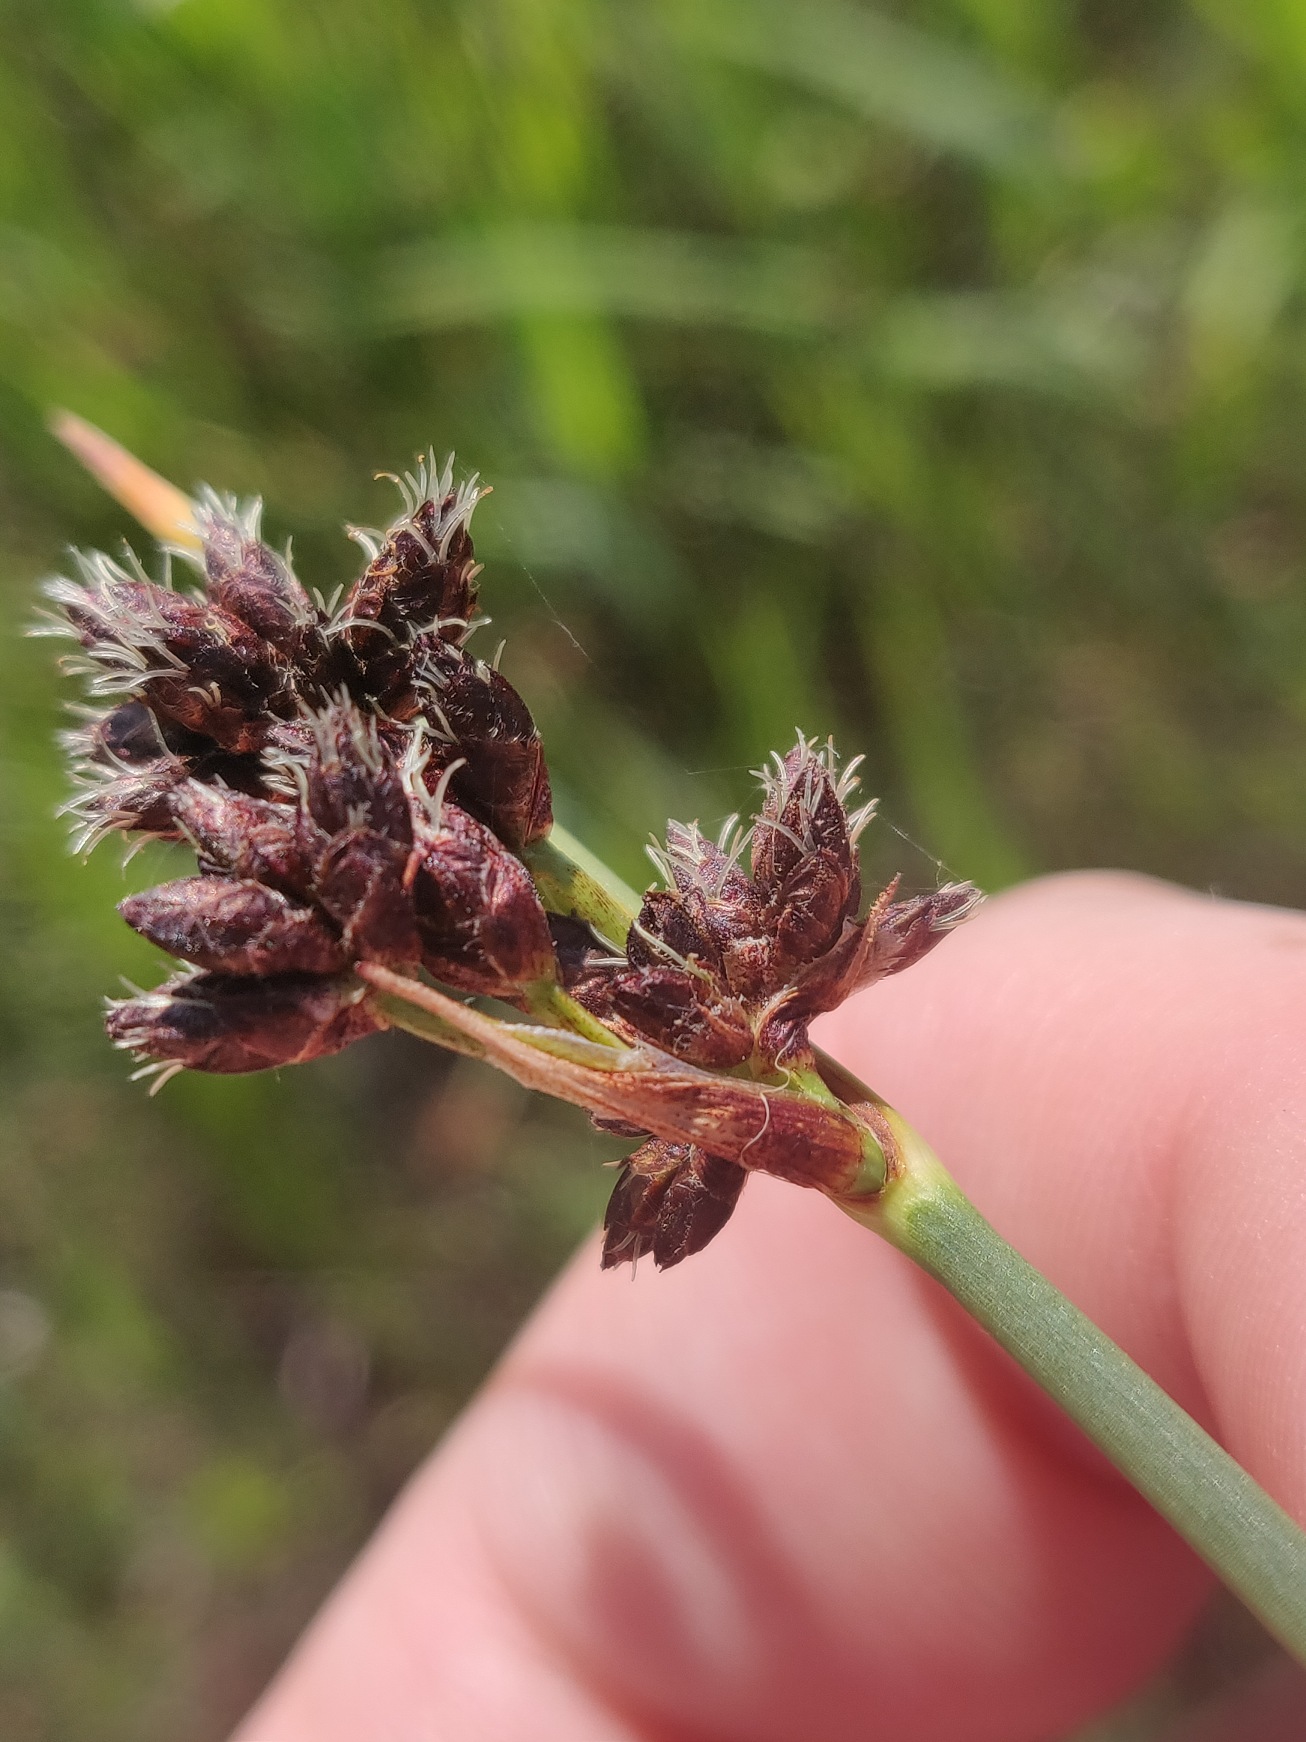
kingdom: Plantae
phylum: Tracheophyta
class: Liliopsida
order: Poales
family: Cyperaceae
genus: Schoenoplectus
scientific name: Schoenoplectus tabernaemontani
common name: Blågrøn kogleaks
